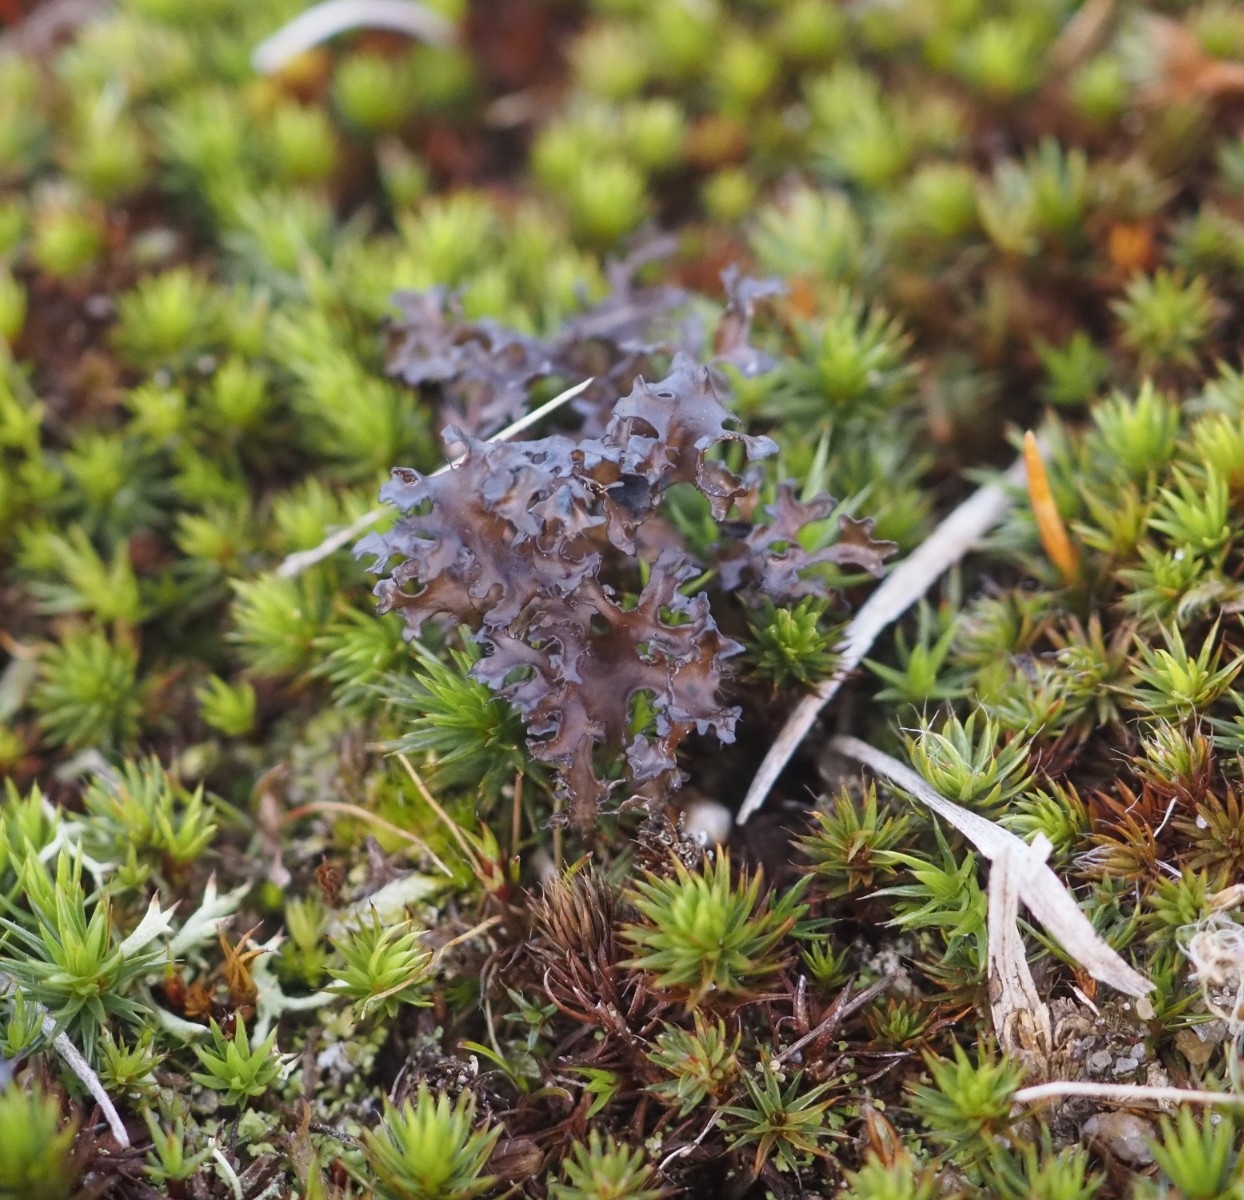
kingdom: Fungi
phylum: Ascomycota
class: Lecanoromycetes
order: Lecanorales
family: Parmeliaceae
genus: Cetraria
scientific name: Cetraria islandica
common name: islandsk kruslav
